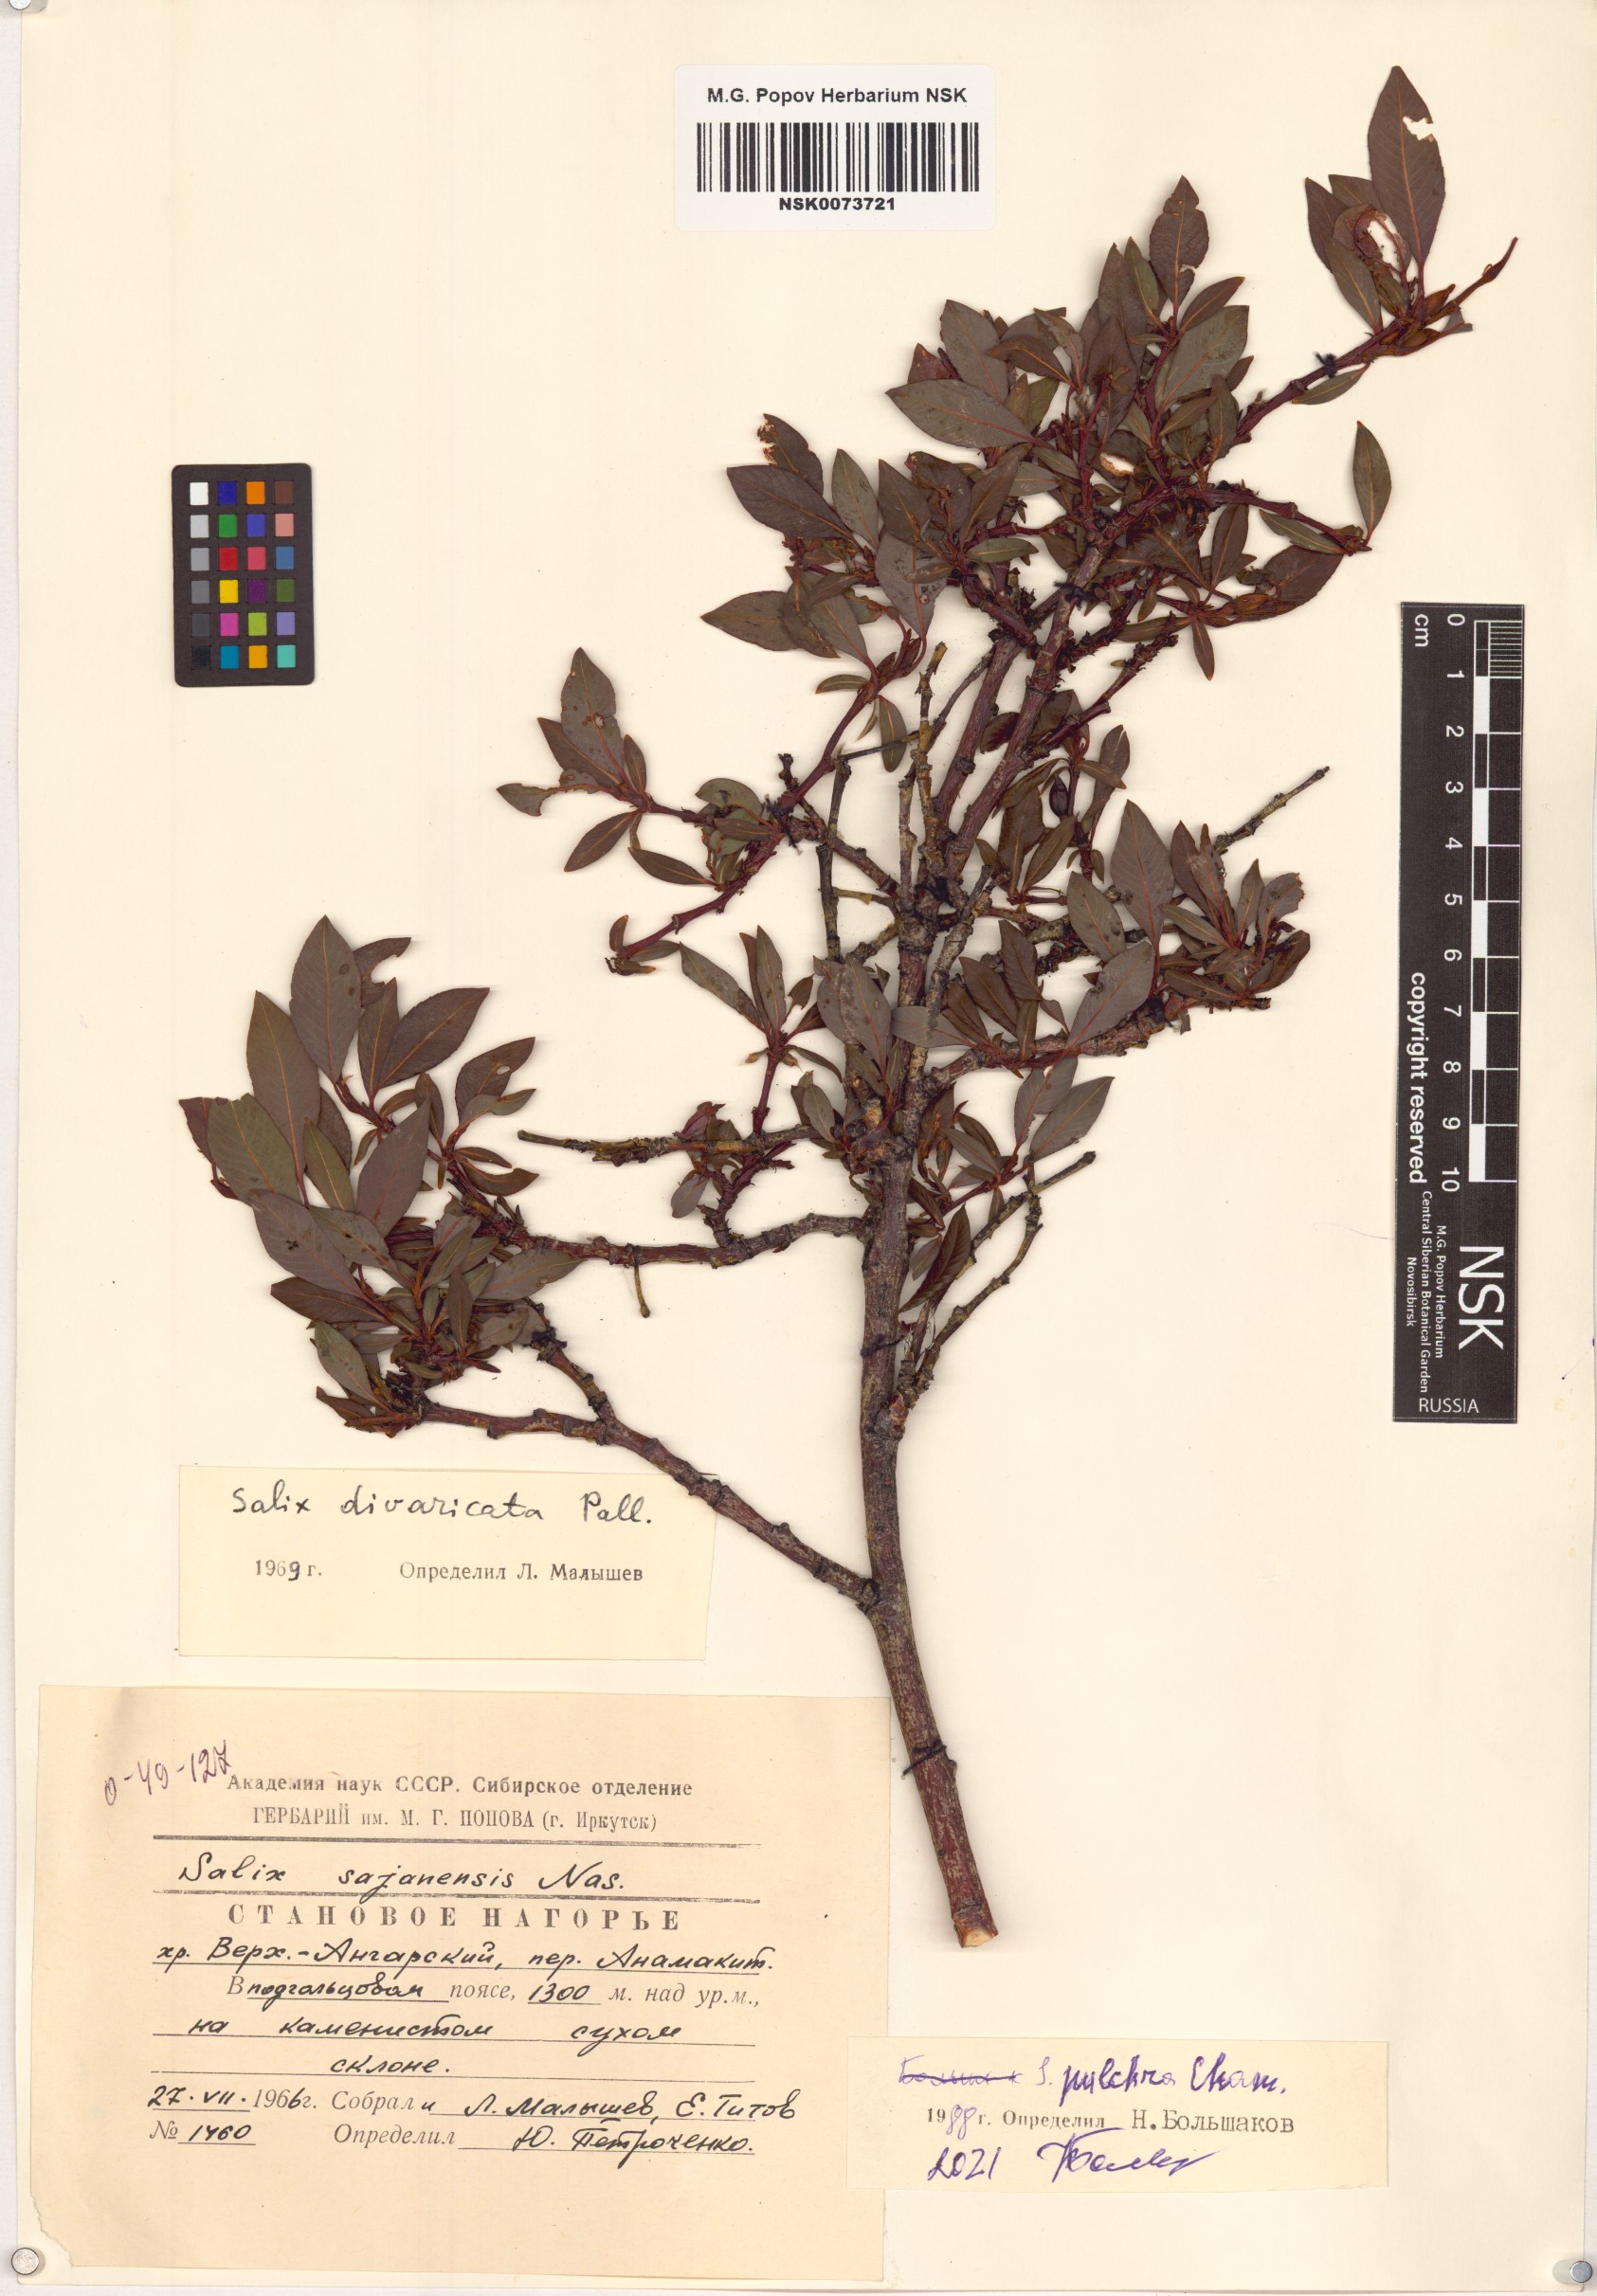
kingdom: Plantae
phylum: Tracheophyta
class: Magnoliopsida
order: Malpighiales
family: Salicaceae
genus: Salix
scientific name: Salix pulchra
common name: Diamond-leaved willow
